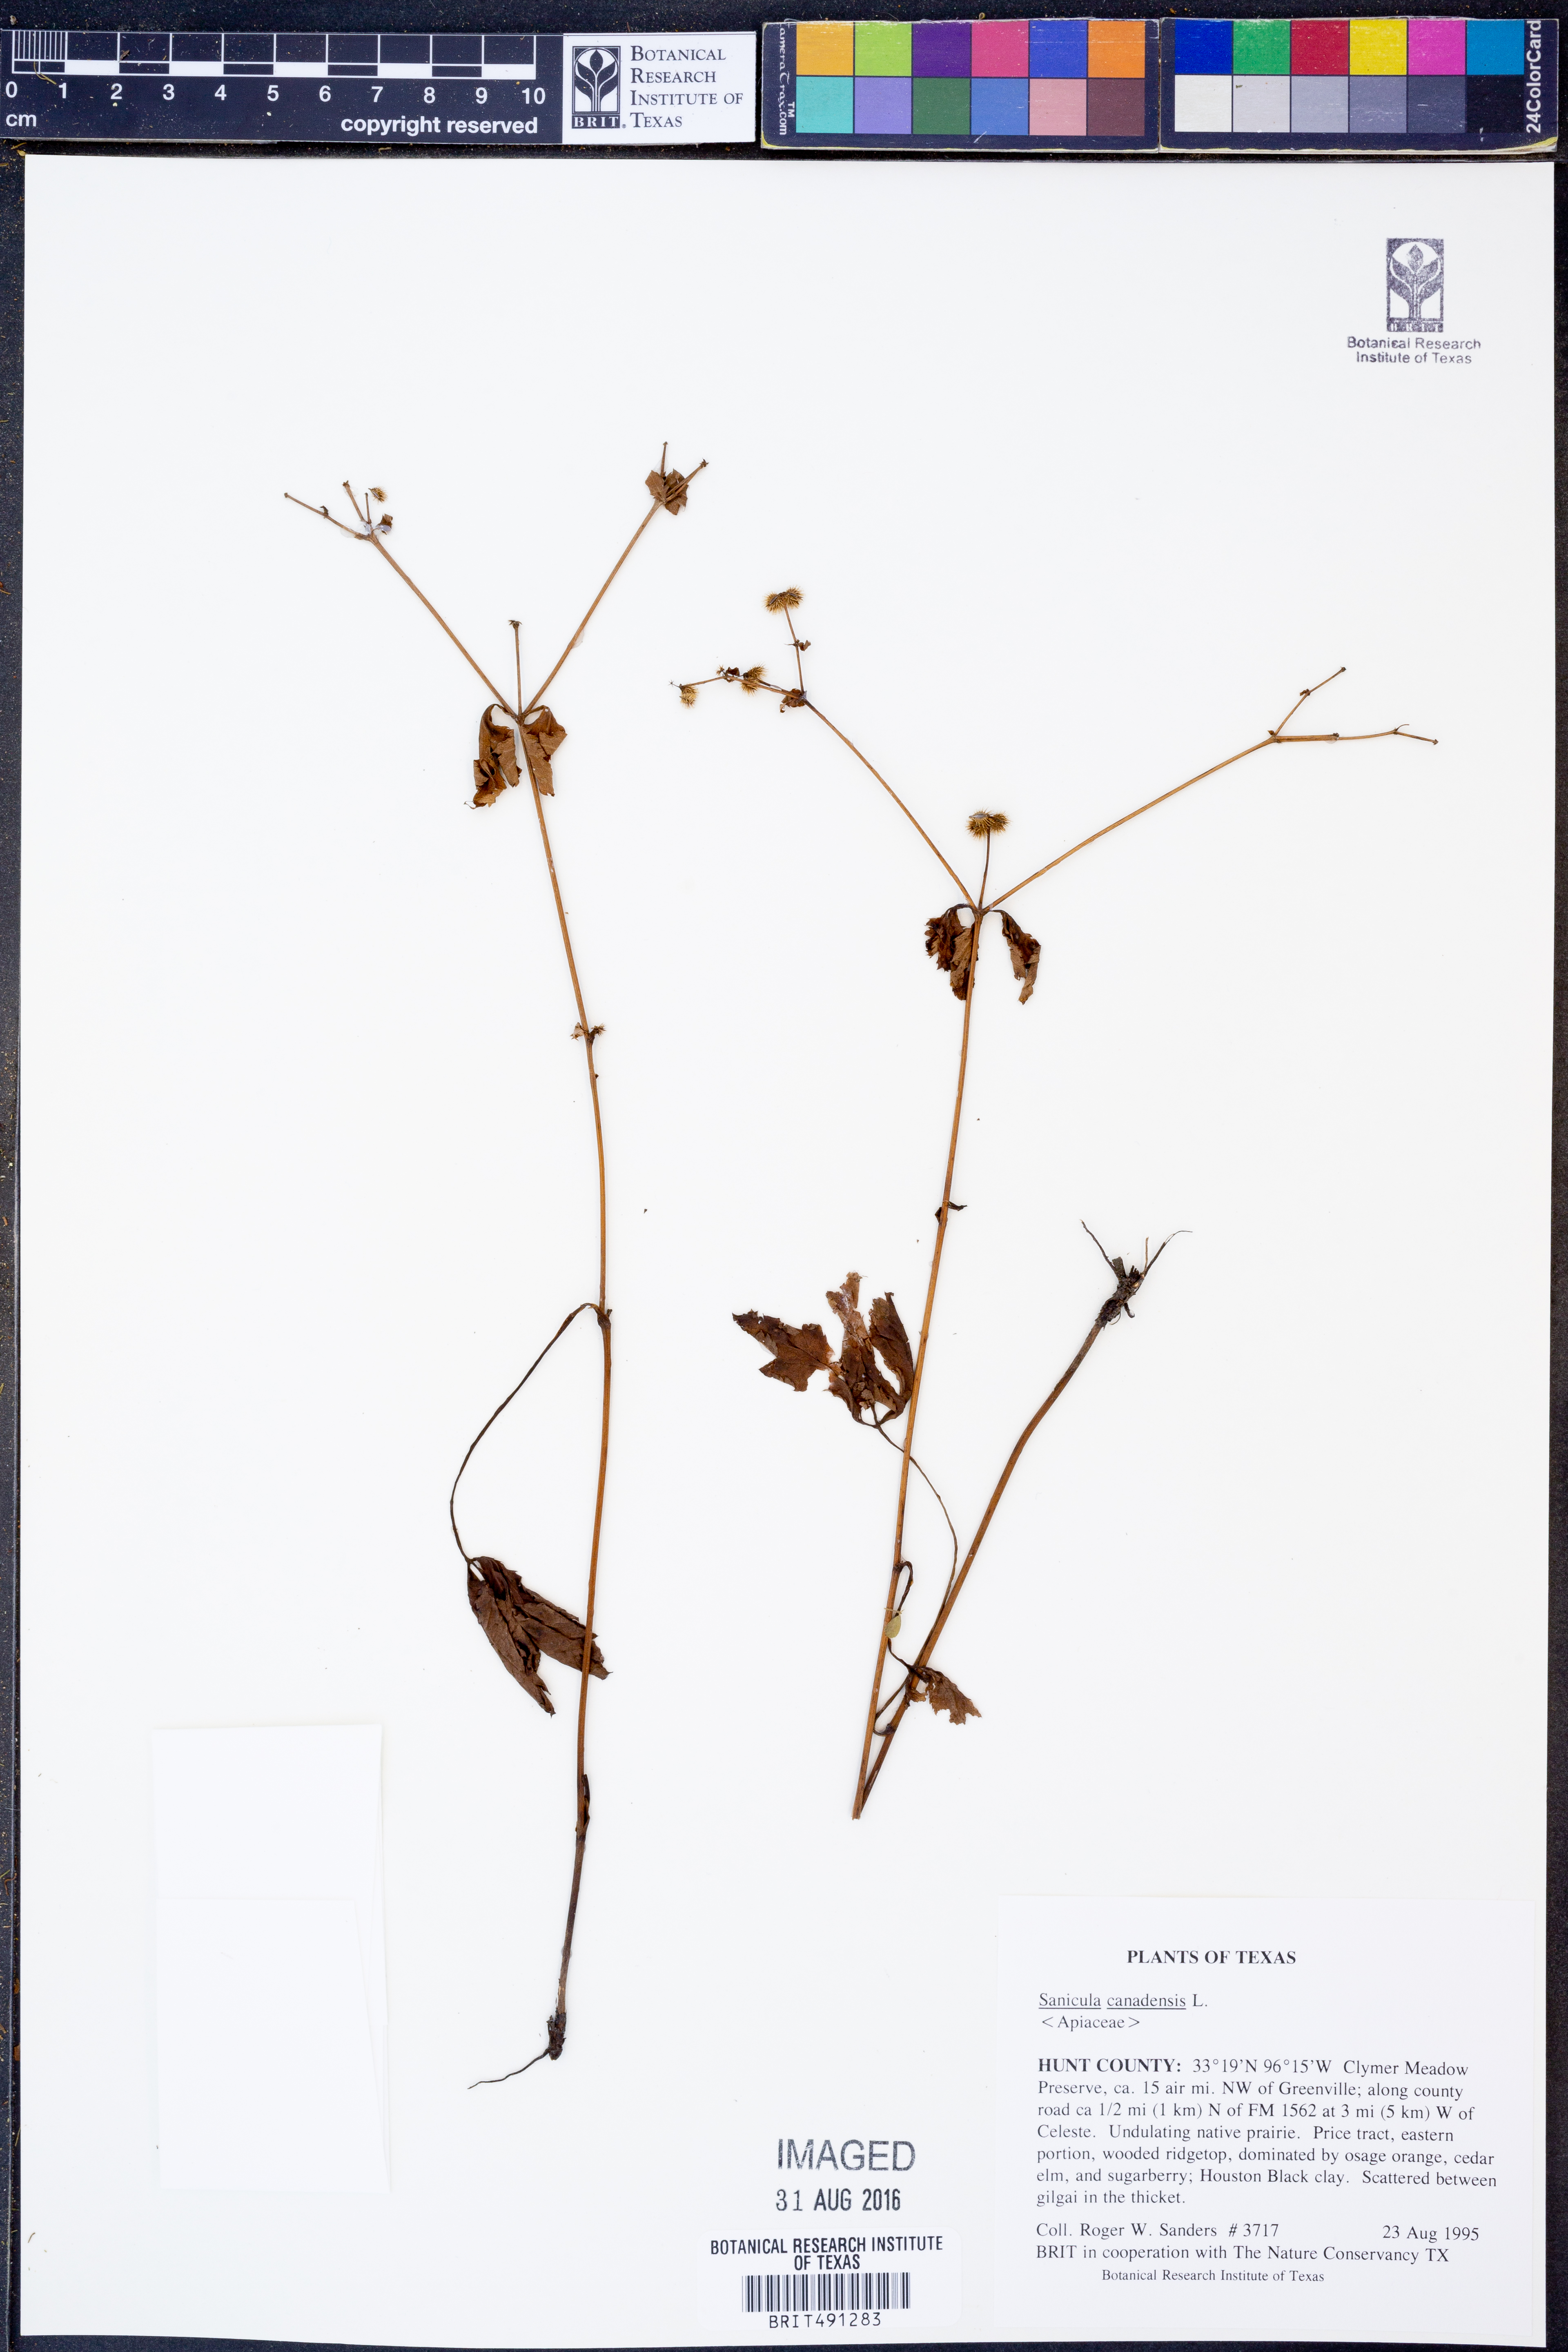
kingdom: Plantae
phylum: Tracheophyta
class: Magnoliopsida
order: Apiales
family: Apiaceae
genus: Sanicula
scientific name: Sanicula canadensis
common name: Canada sanicle
